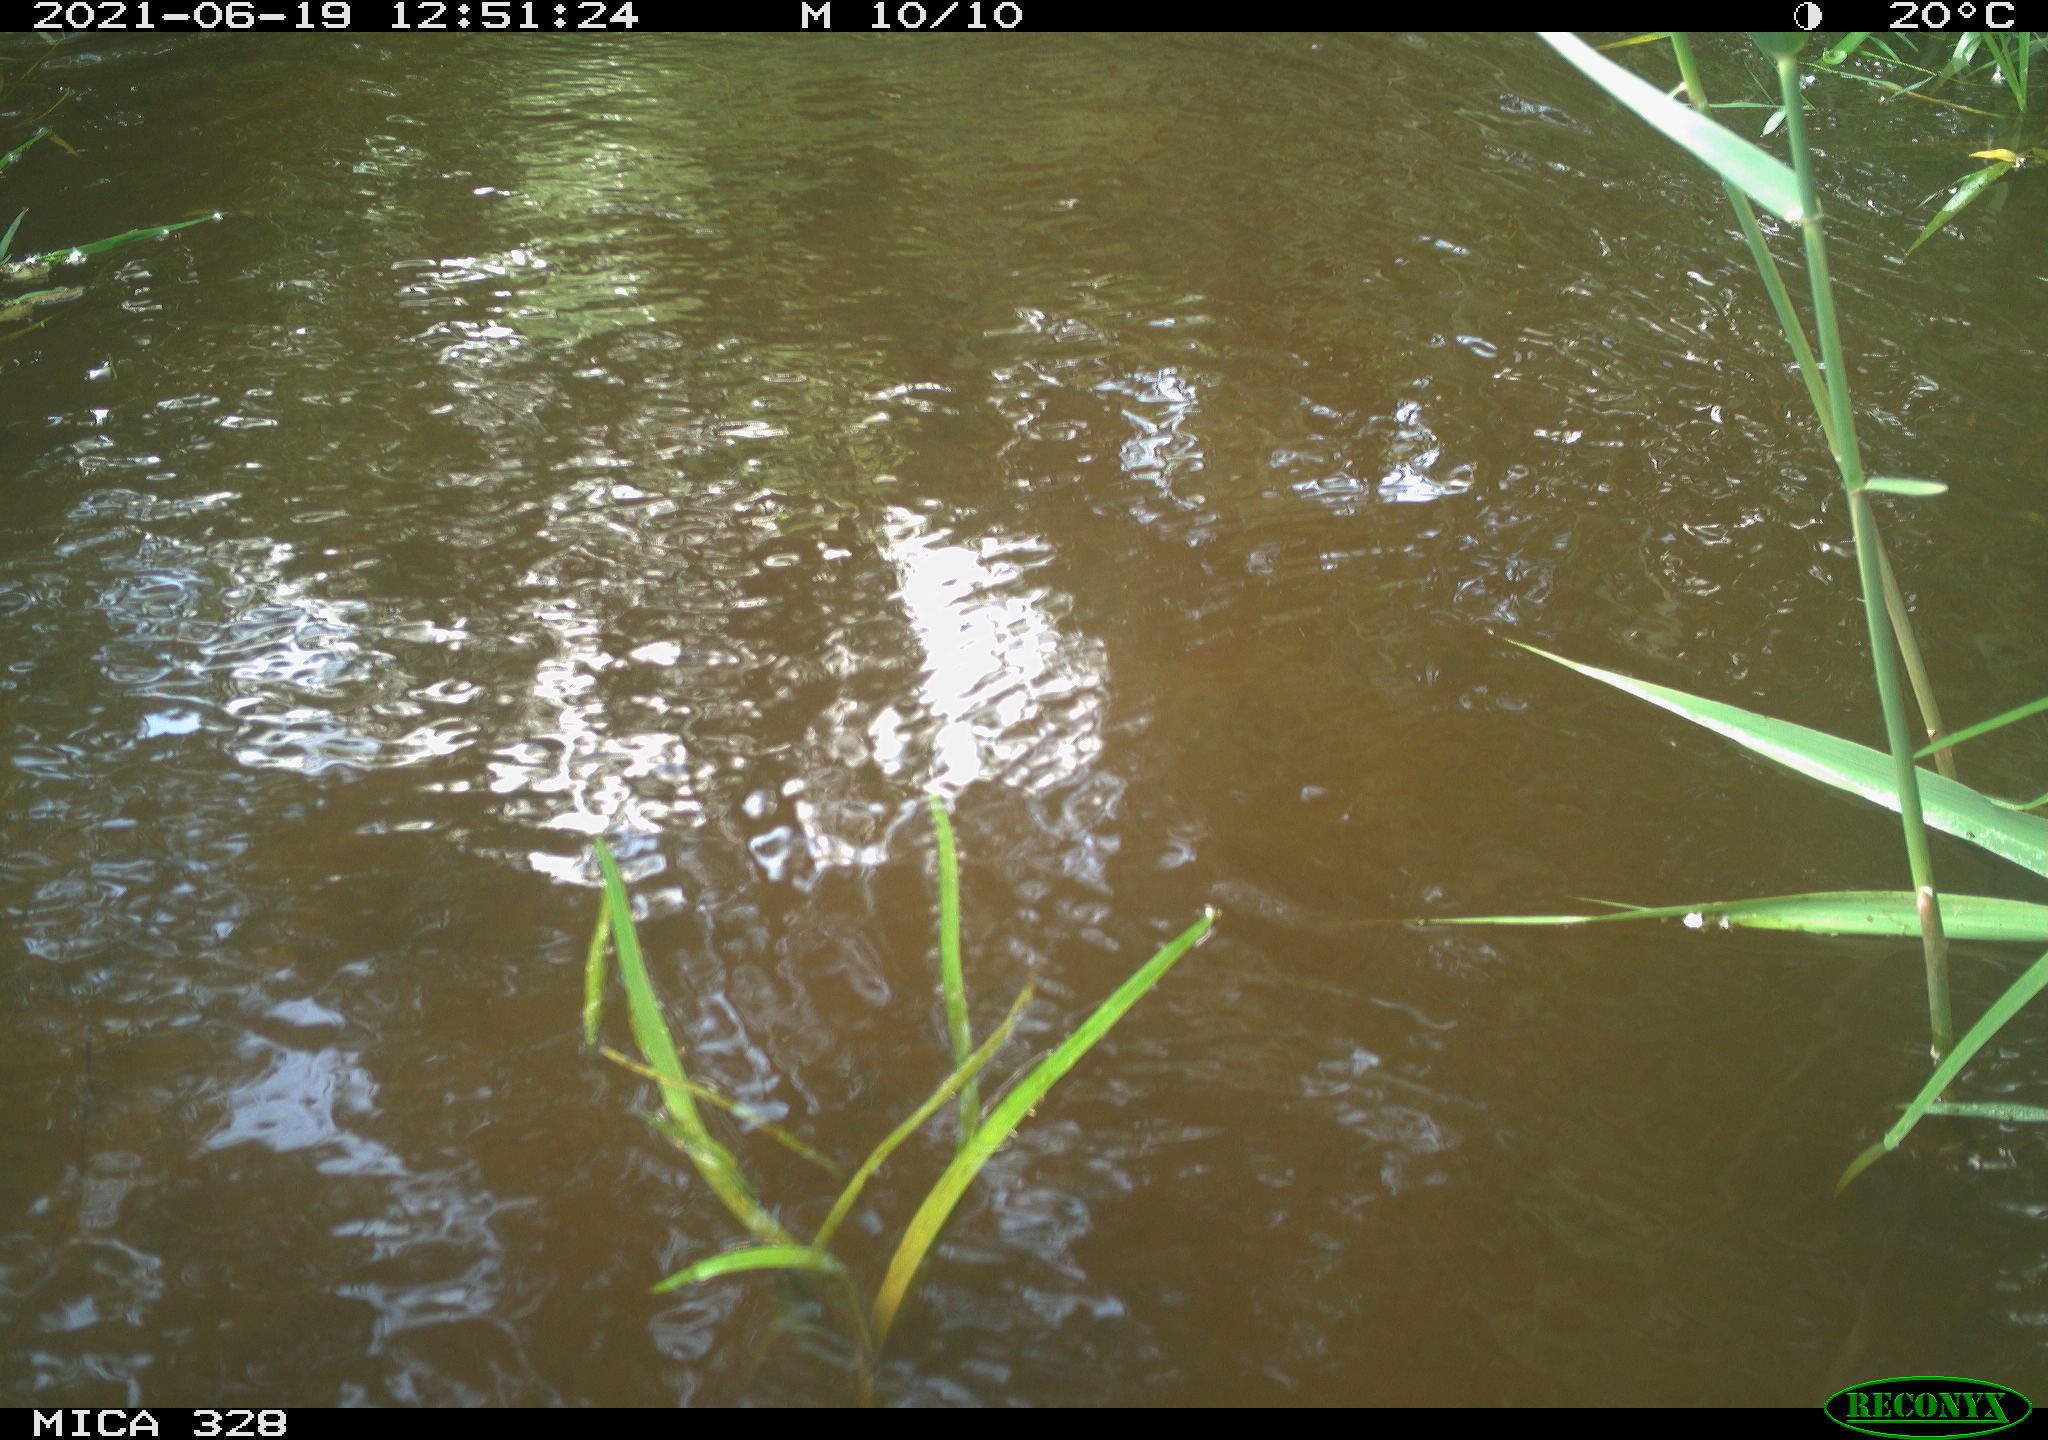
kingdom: Animalia
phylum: Chordata
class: Aves
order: Anseriformes
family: Anatidae
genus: Aix
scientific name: Aix galericulata
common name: Mandarin duck
